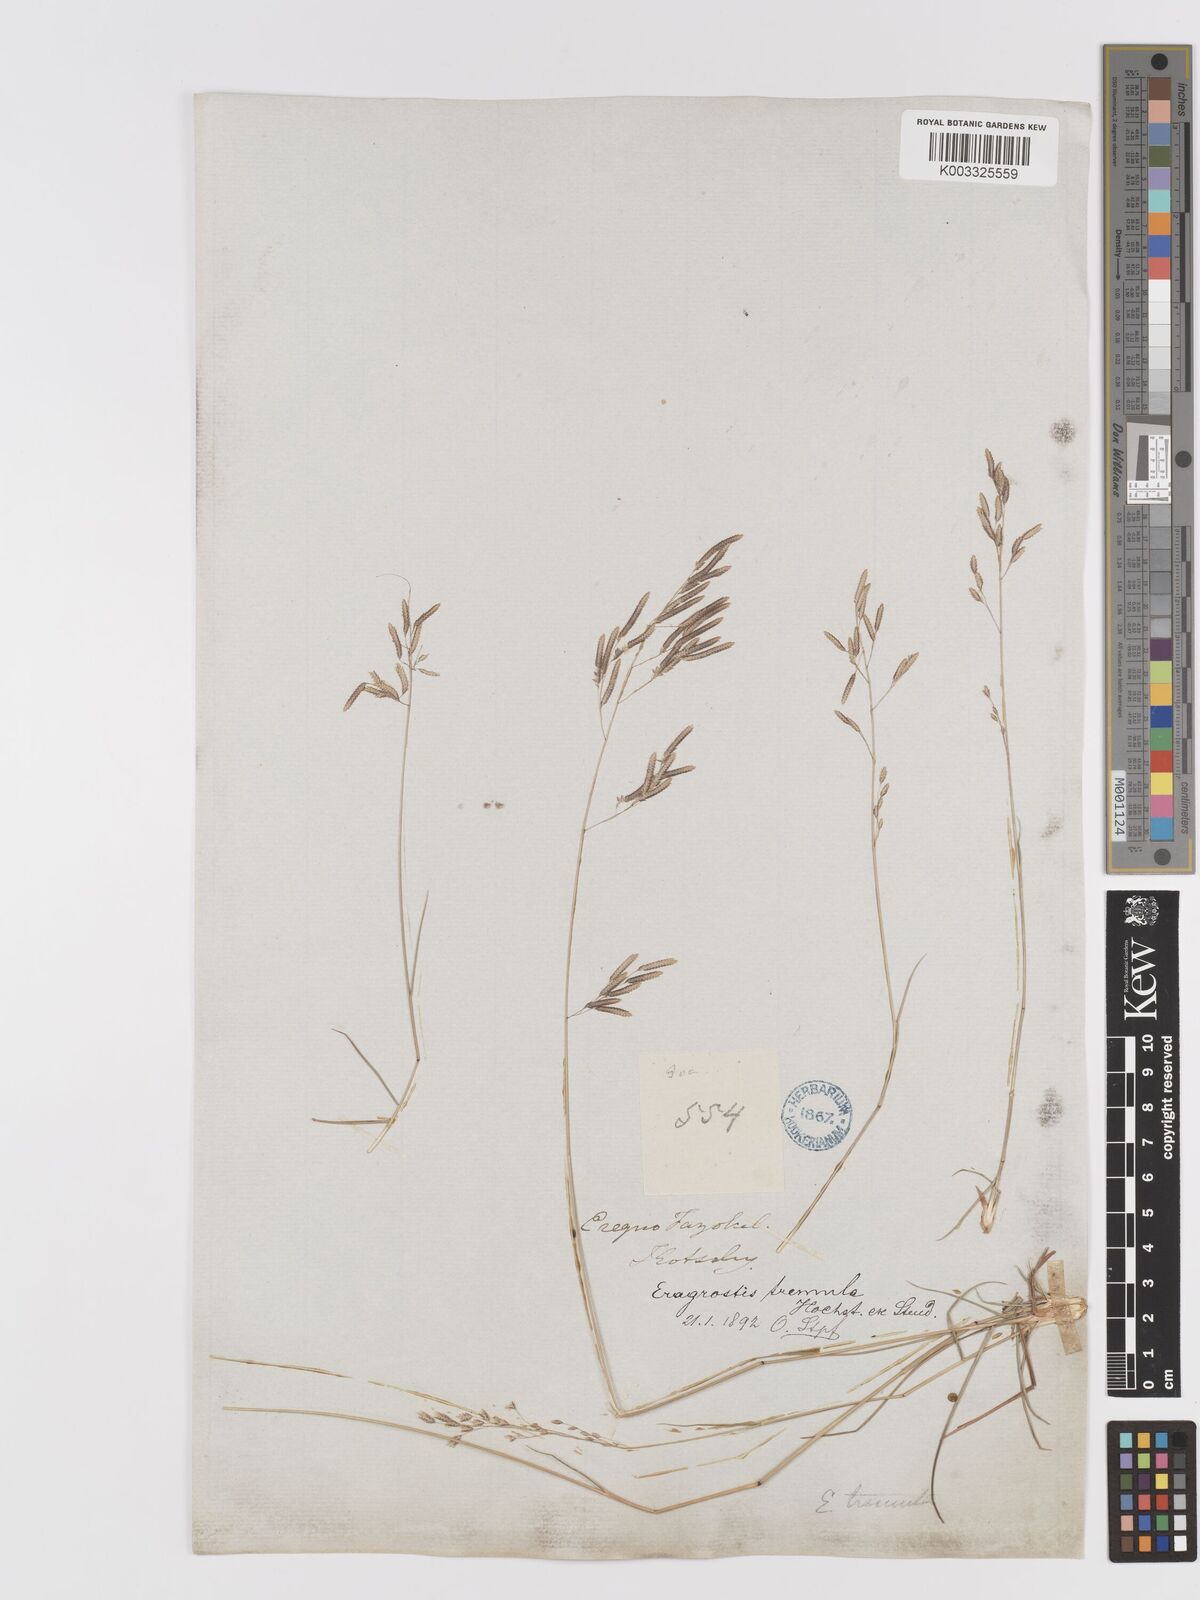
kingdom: Plantae
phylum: Tracheophyta
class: Liliopsida
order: Poales
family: Poaceae
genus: Eragrostis
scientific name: Eragrostis tremula
